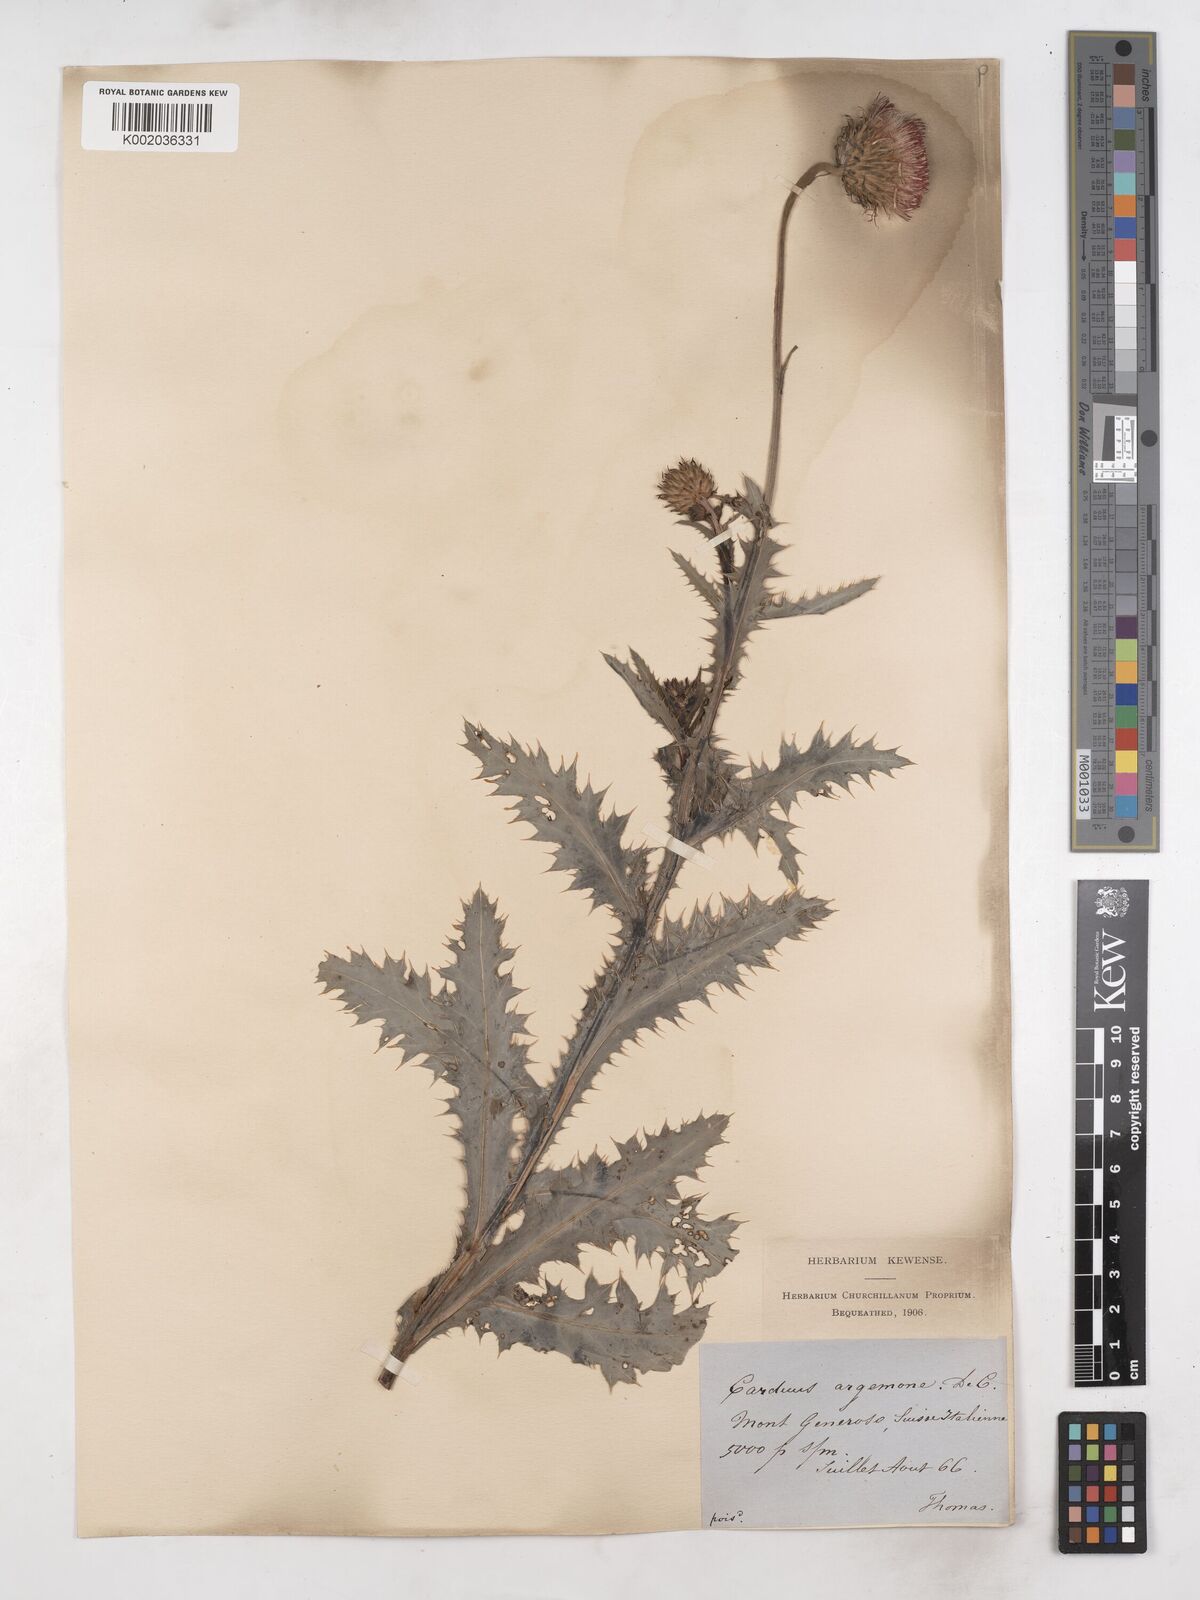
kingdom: Plantae
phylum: Tracheophyta
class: Magnoliopsida
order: Asterales
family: Asteraceae
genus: Carduus
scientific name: Carduus defloratus
